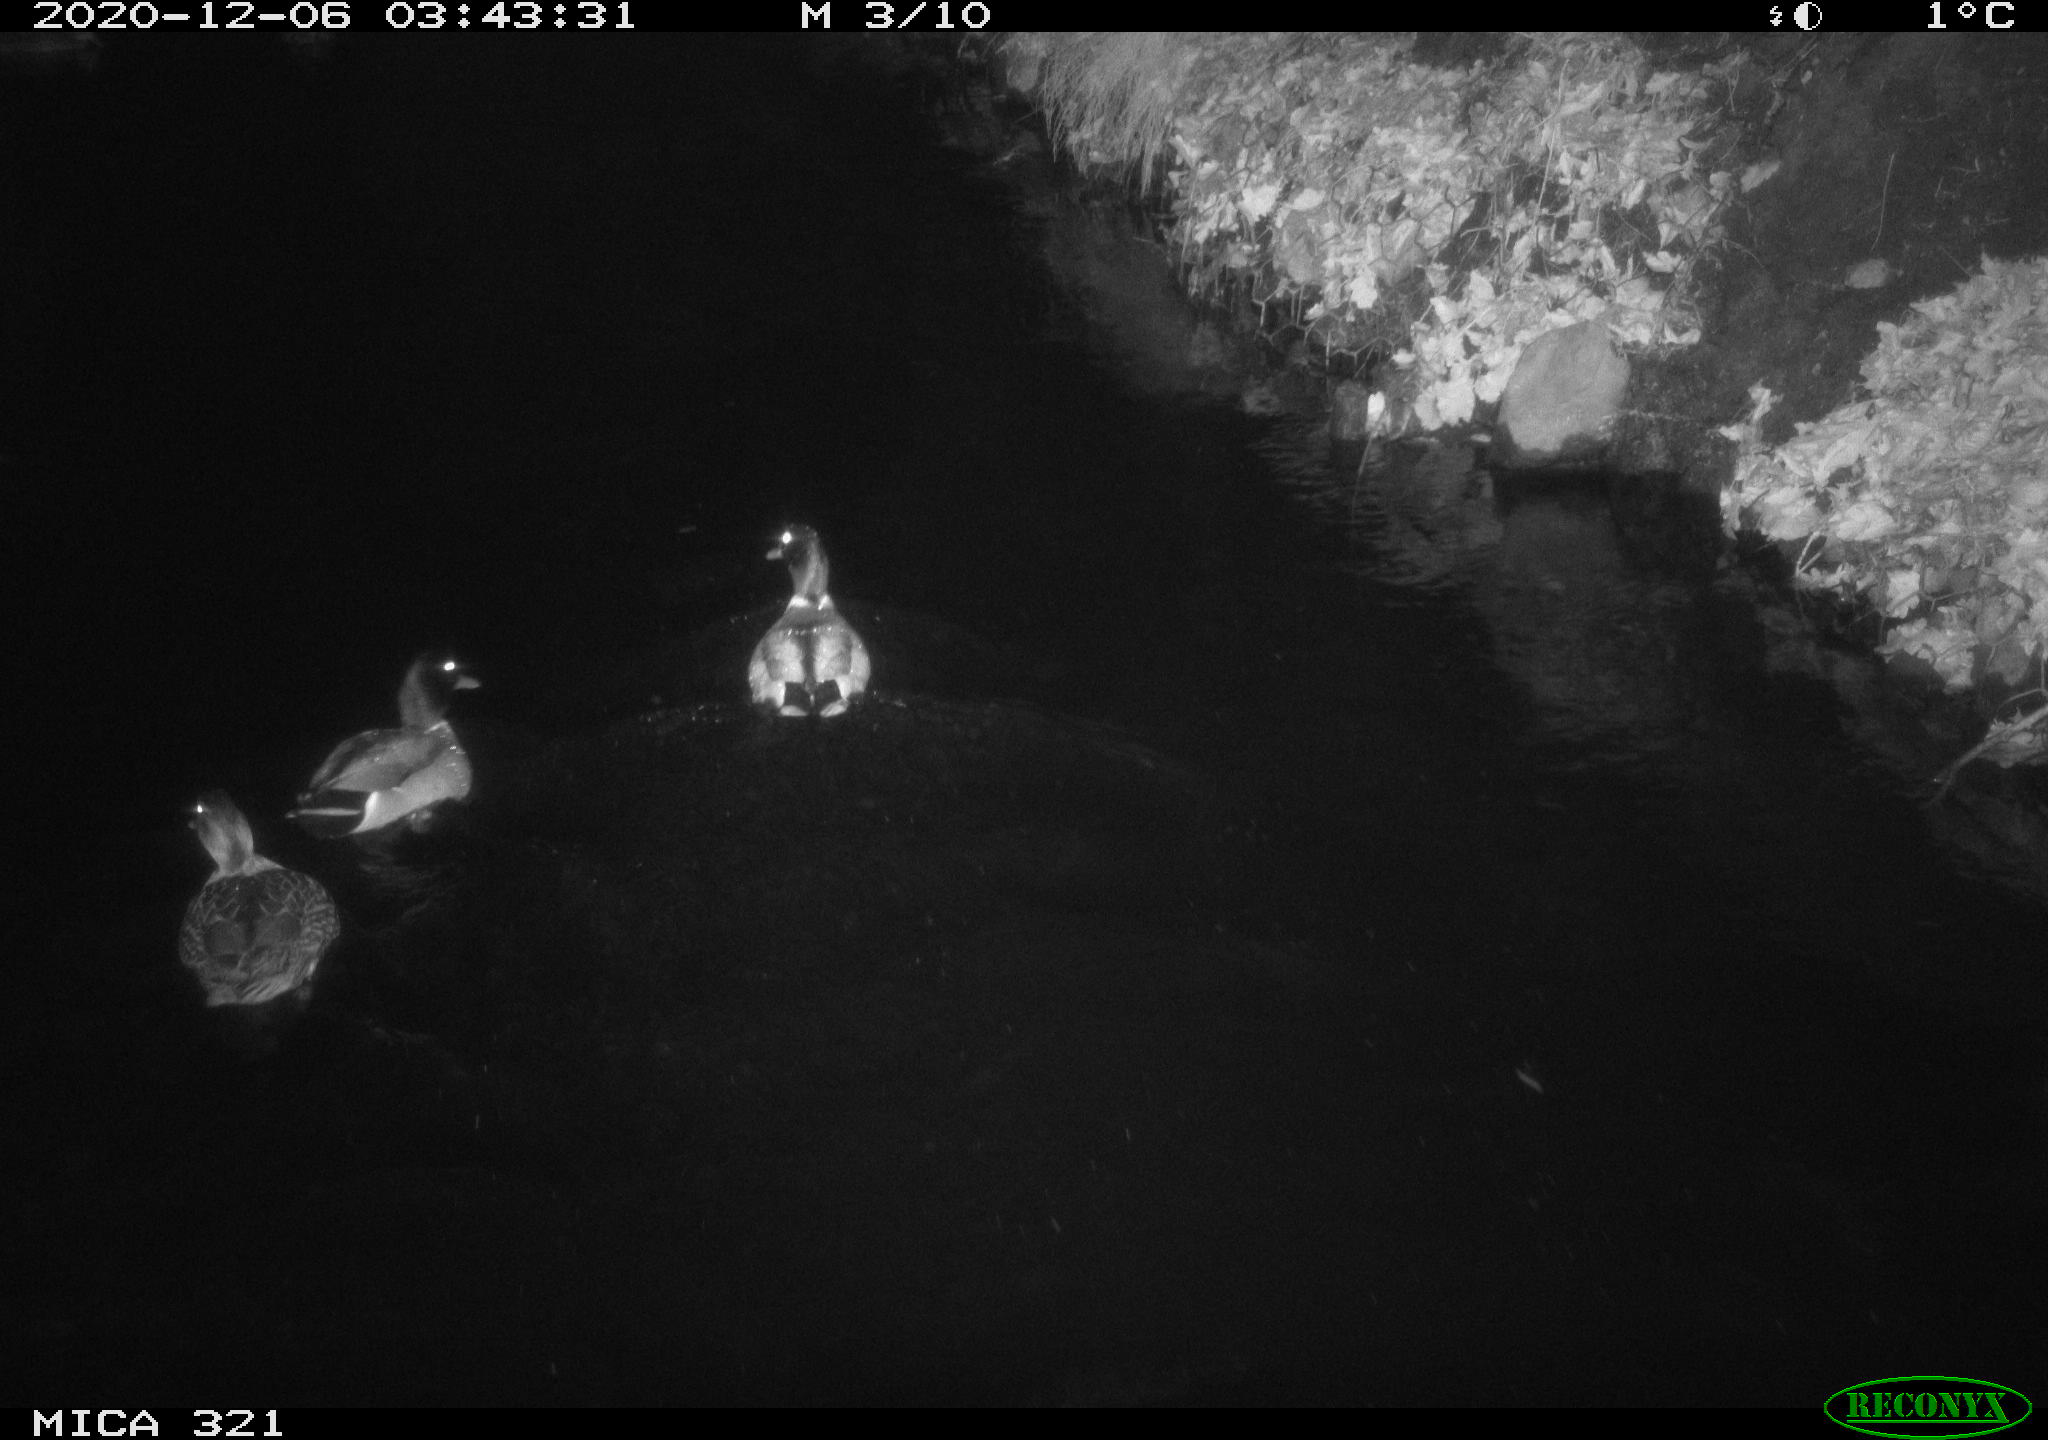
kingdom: Animalia
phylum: Chordata
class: Aves
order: Anseriformes
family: Anatidae
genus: Anas
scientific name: Anas platyrhynchos
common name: Mallard
